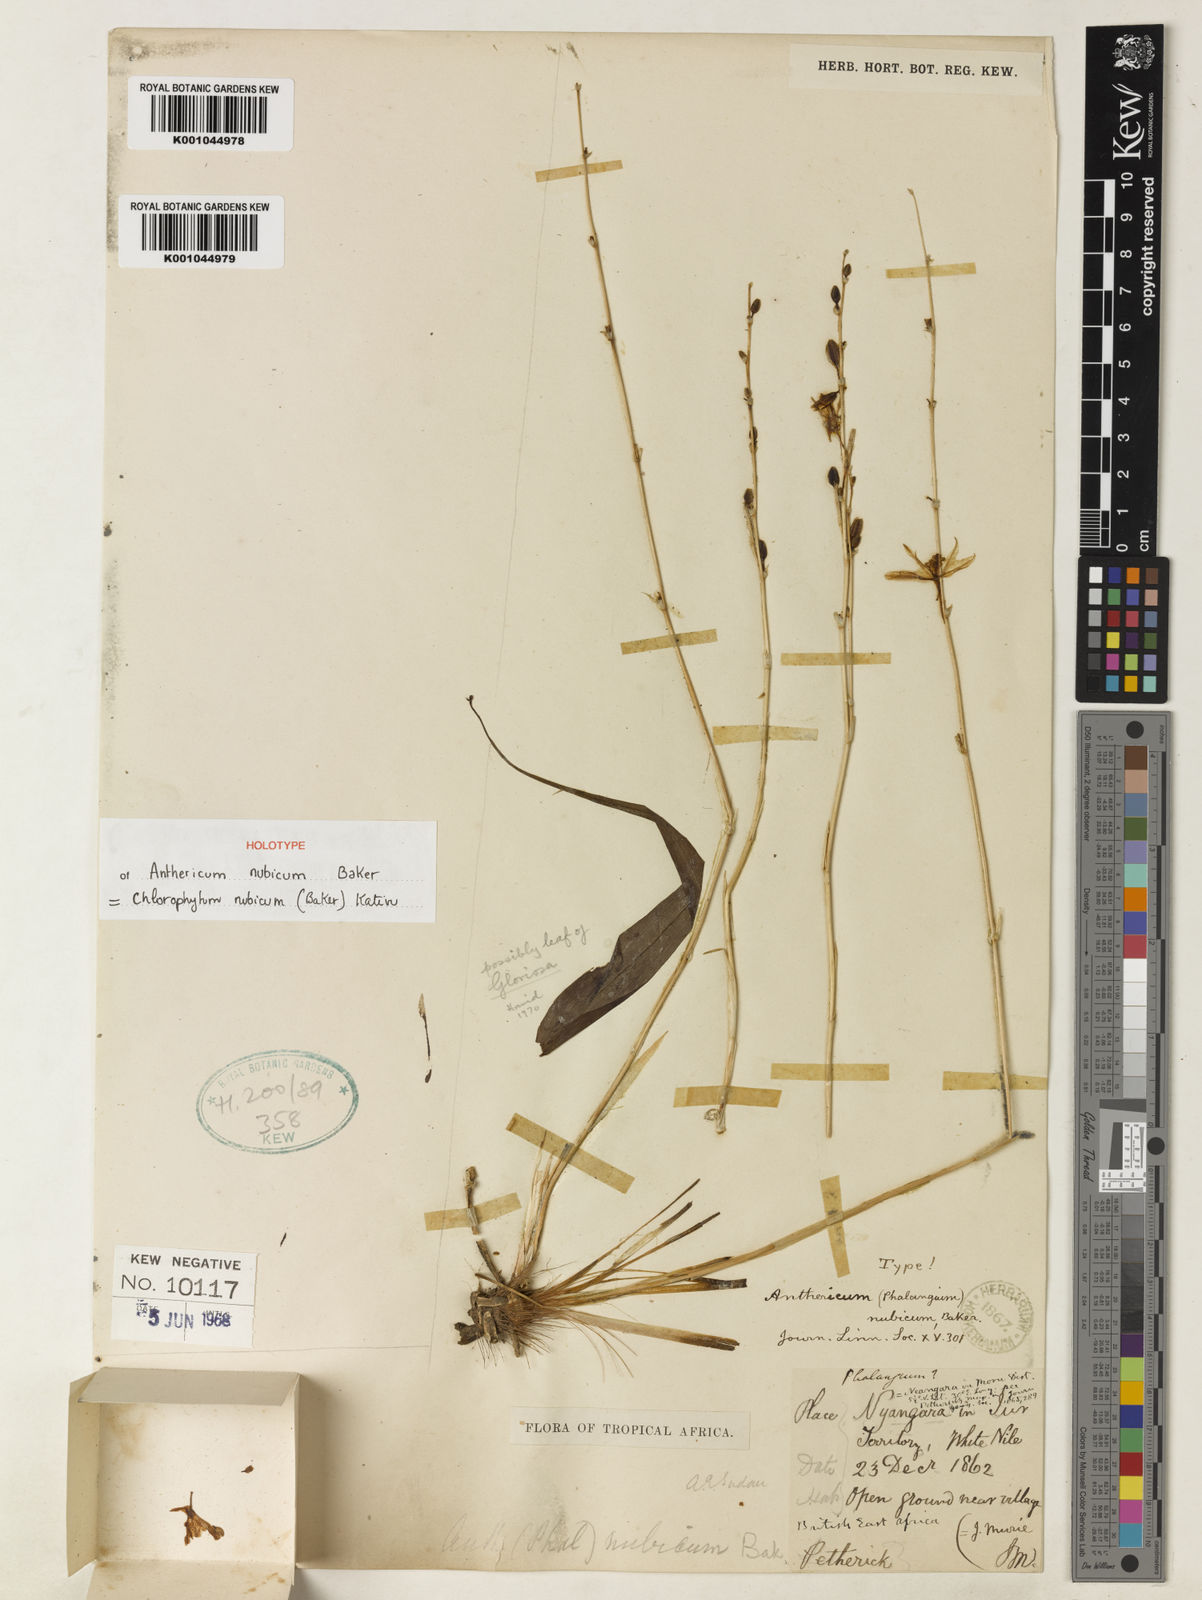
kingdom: Plantae
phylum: Tracheophyta
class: Liliopsida
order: Asparagales
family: Asparagaceae
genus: Chlorophytum
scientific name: Chlorophytum nubicum
